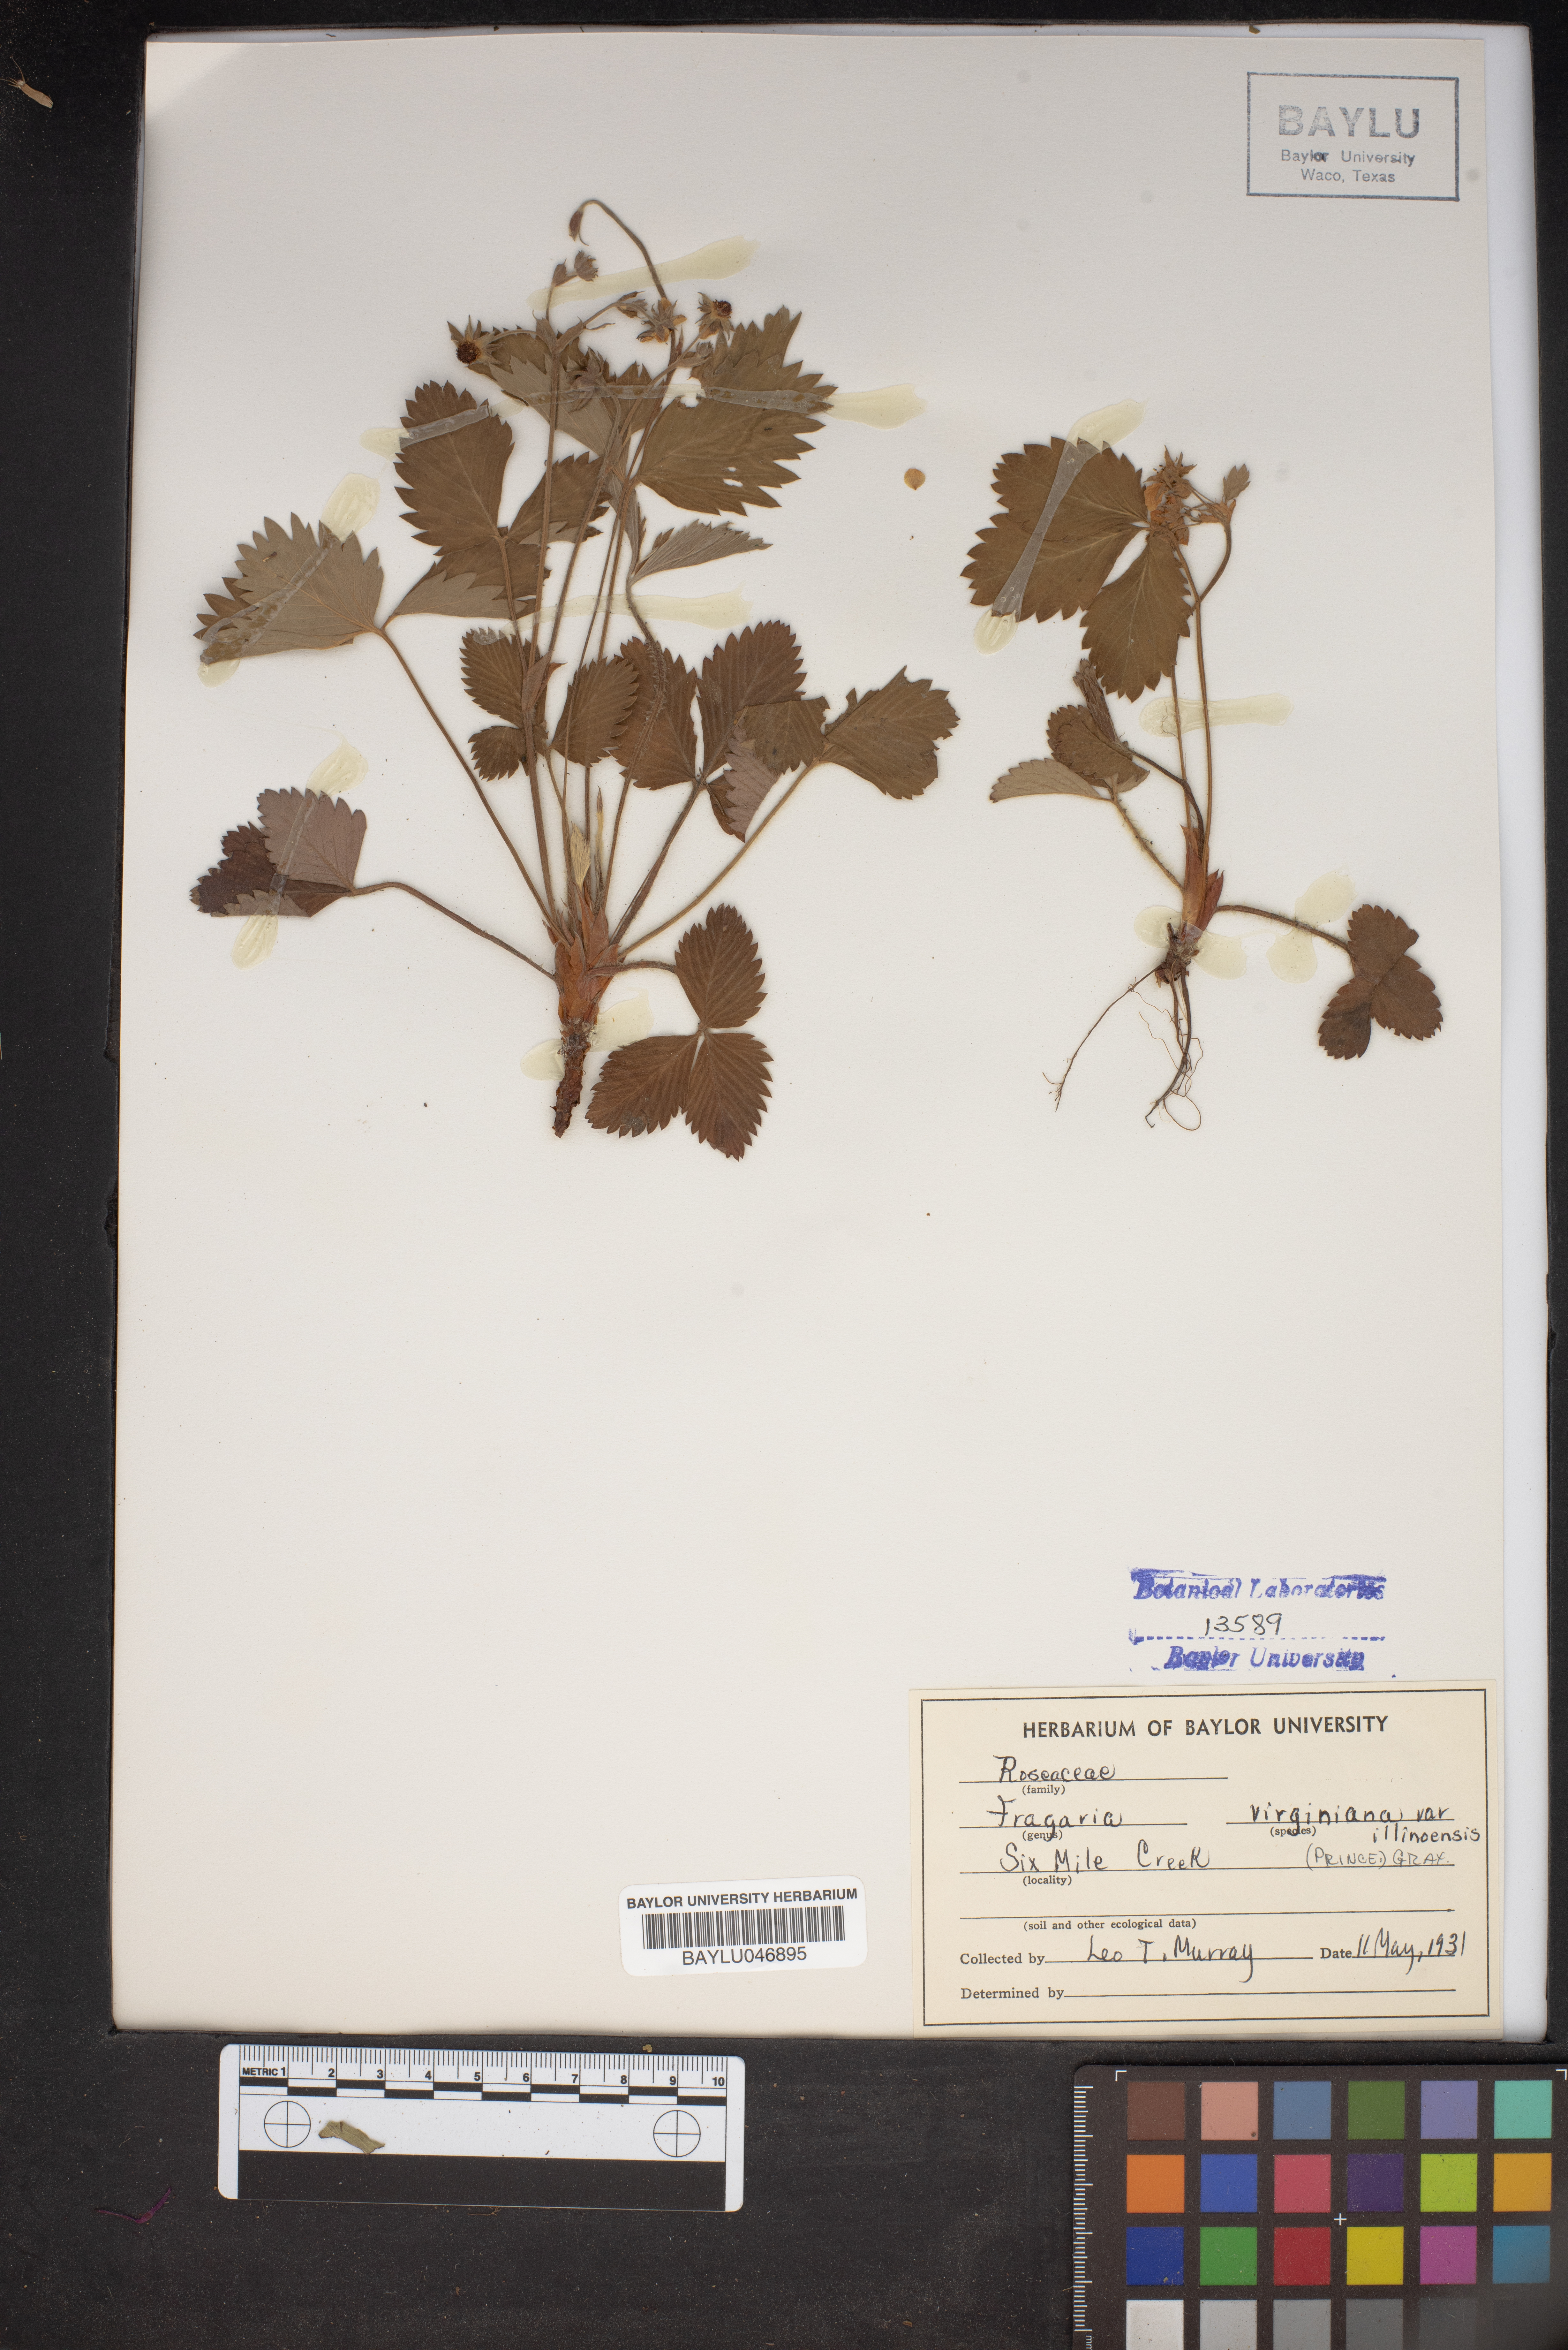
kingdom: Plantae
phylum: Tracheophyta
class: Magnoliopsida
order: Rosales
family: Rosaceae
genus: Fragaria
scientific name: Fragaria virginiana
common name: Thickleaved wild strawberry
